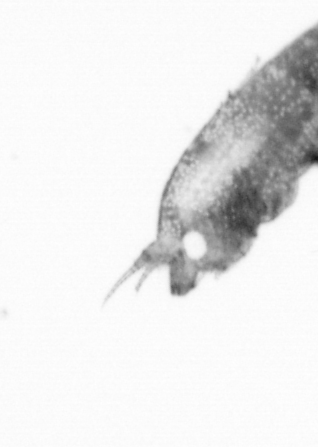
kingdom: Animalia
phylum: Annelida
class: Polychaeta
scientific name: Polychaeta
